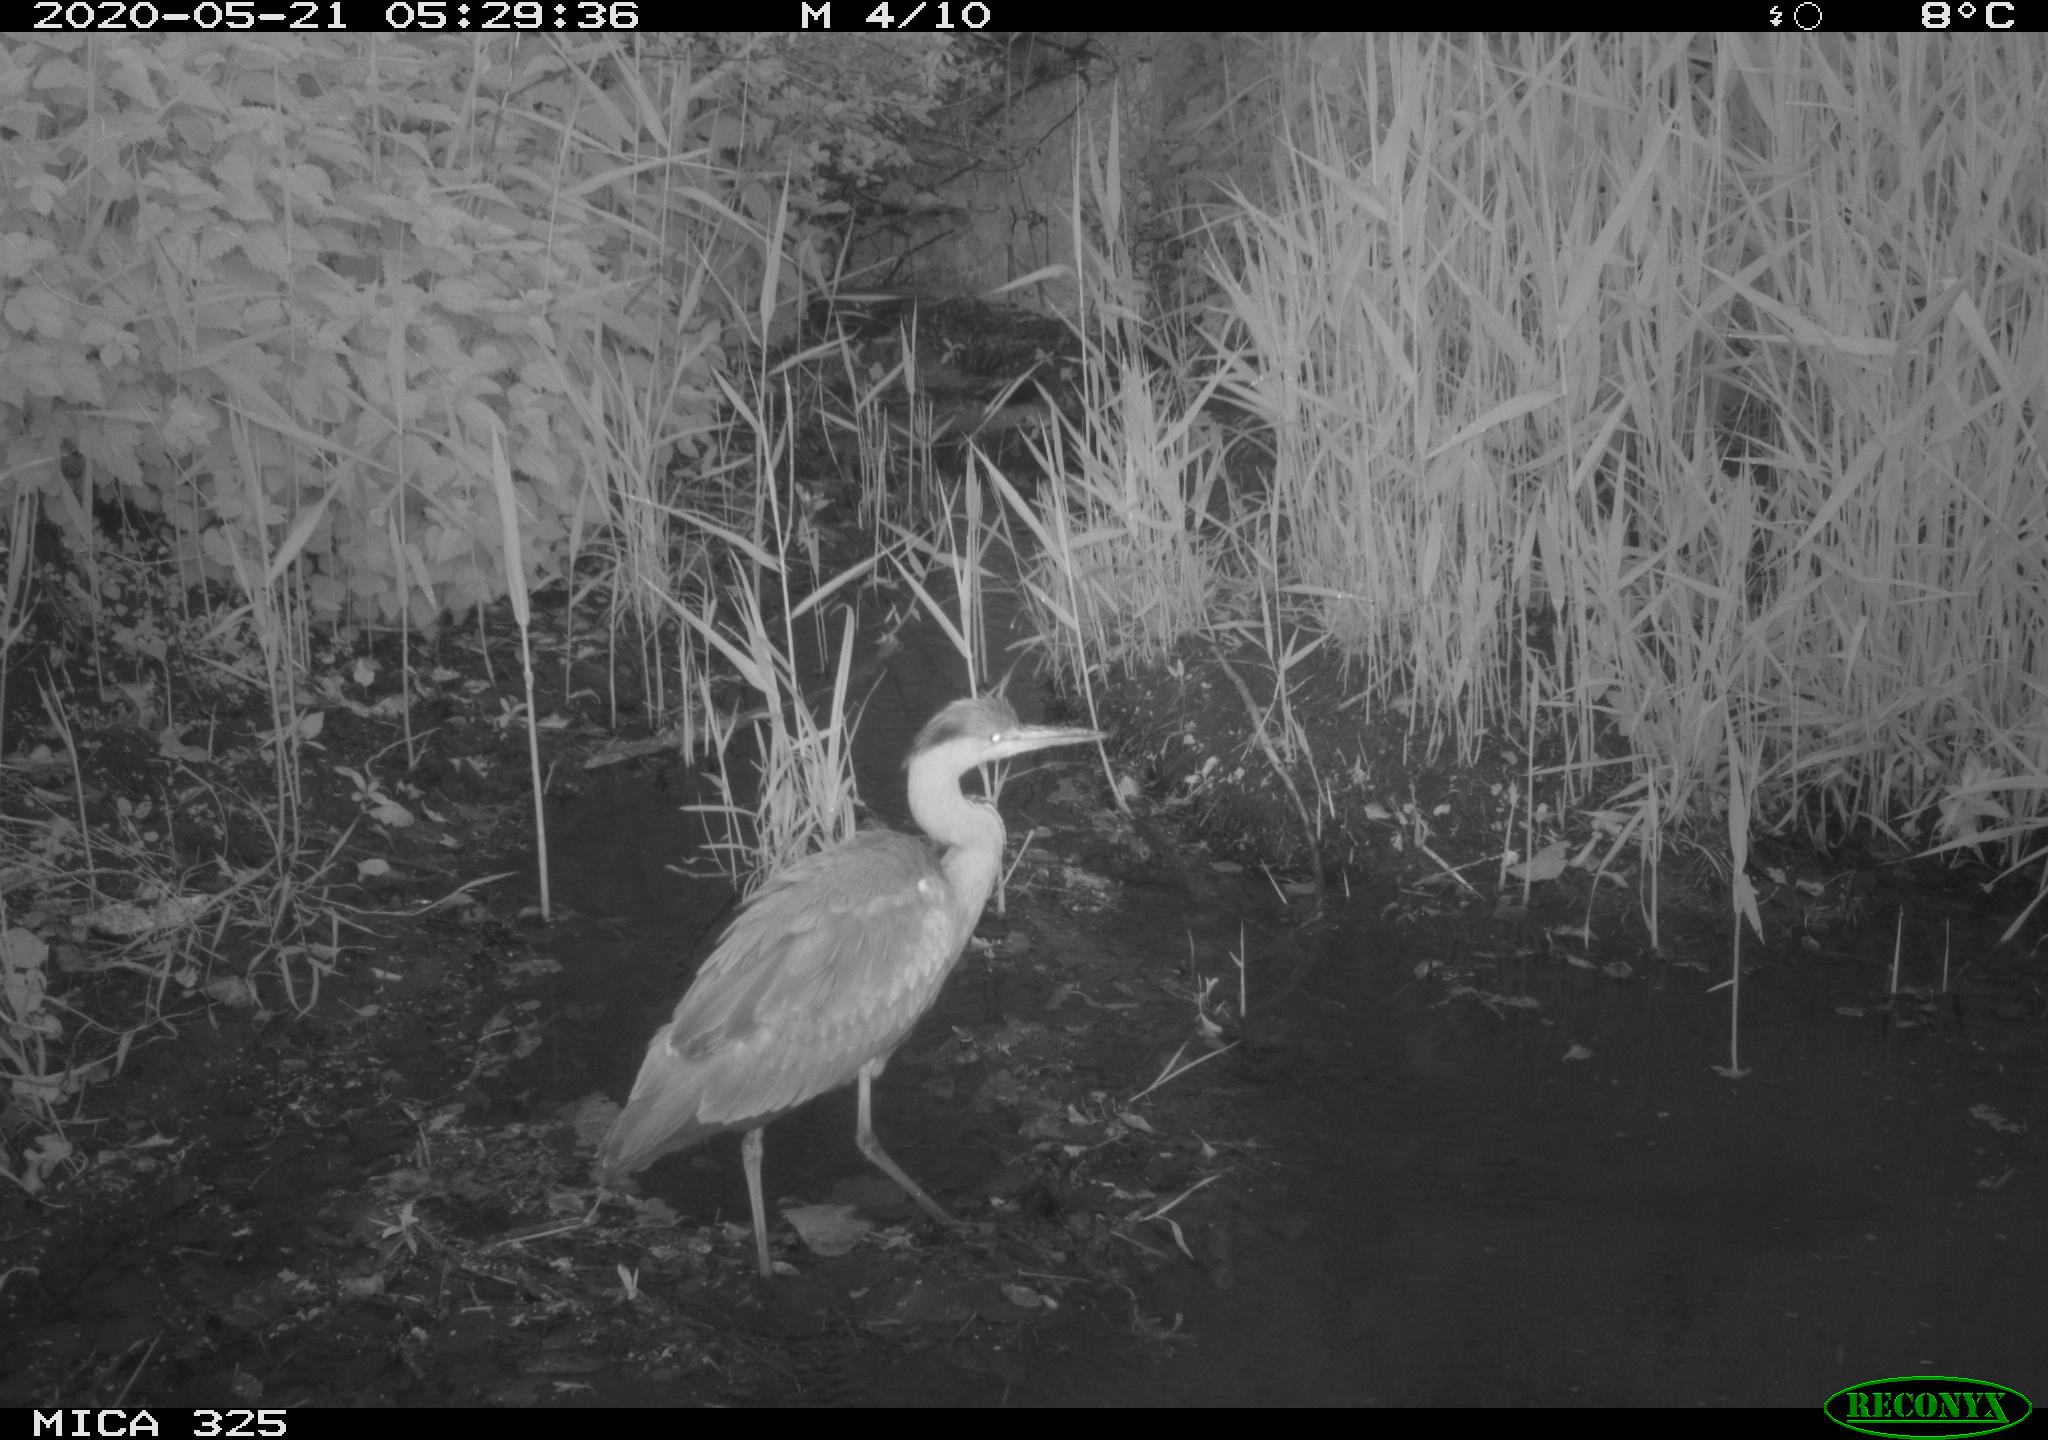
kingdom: Animalia
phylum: Chordata
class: Aves
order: Pelecaniformes
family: Ardeidae
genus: Ardea
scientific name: Ardea cinerea
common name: Grey heron
